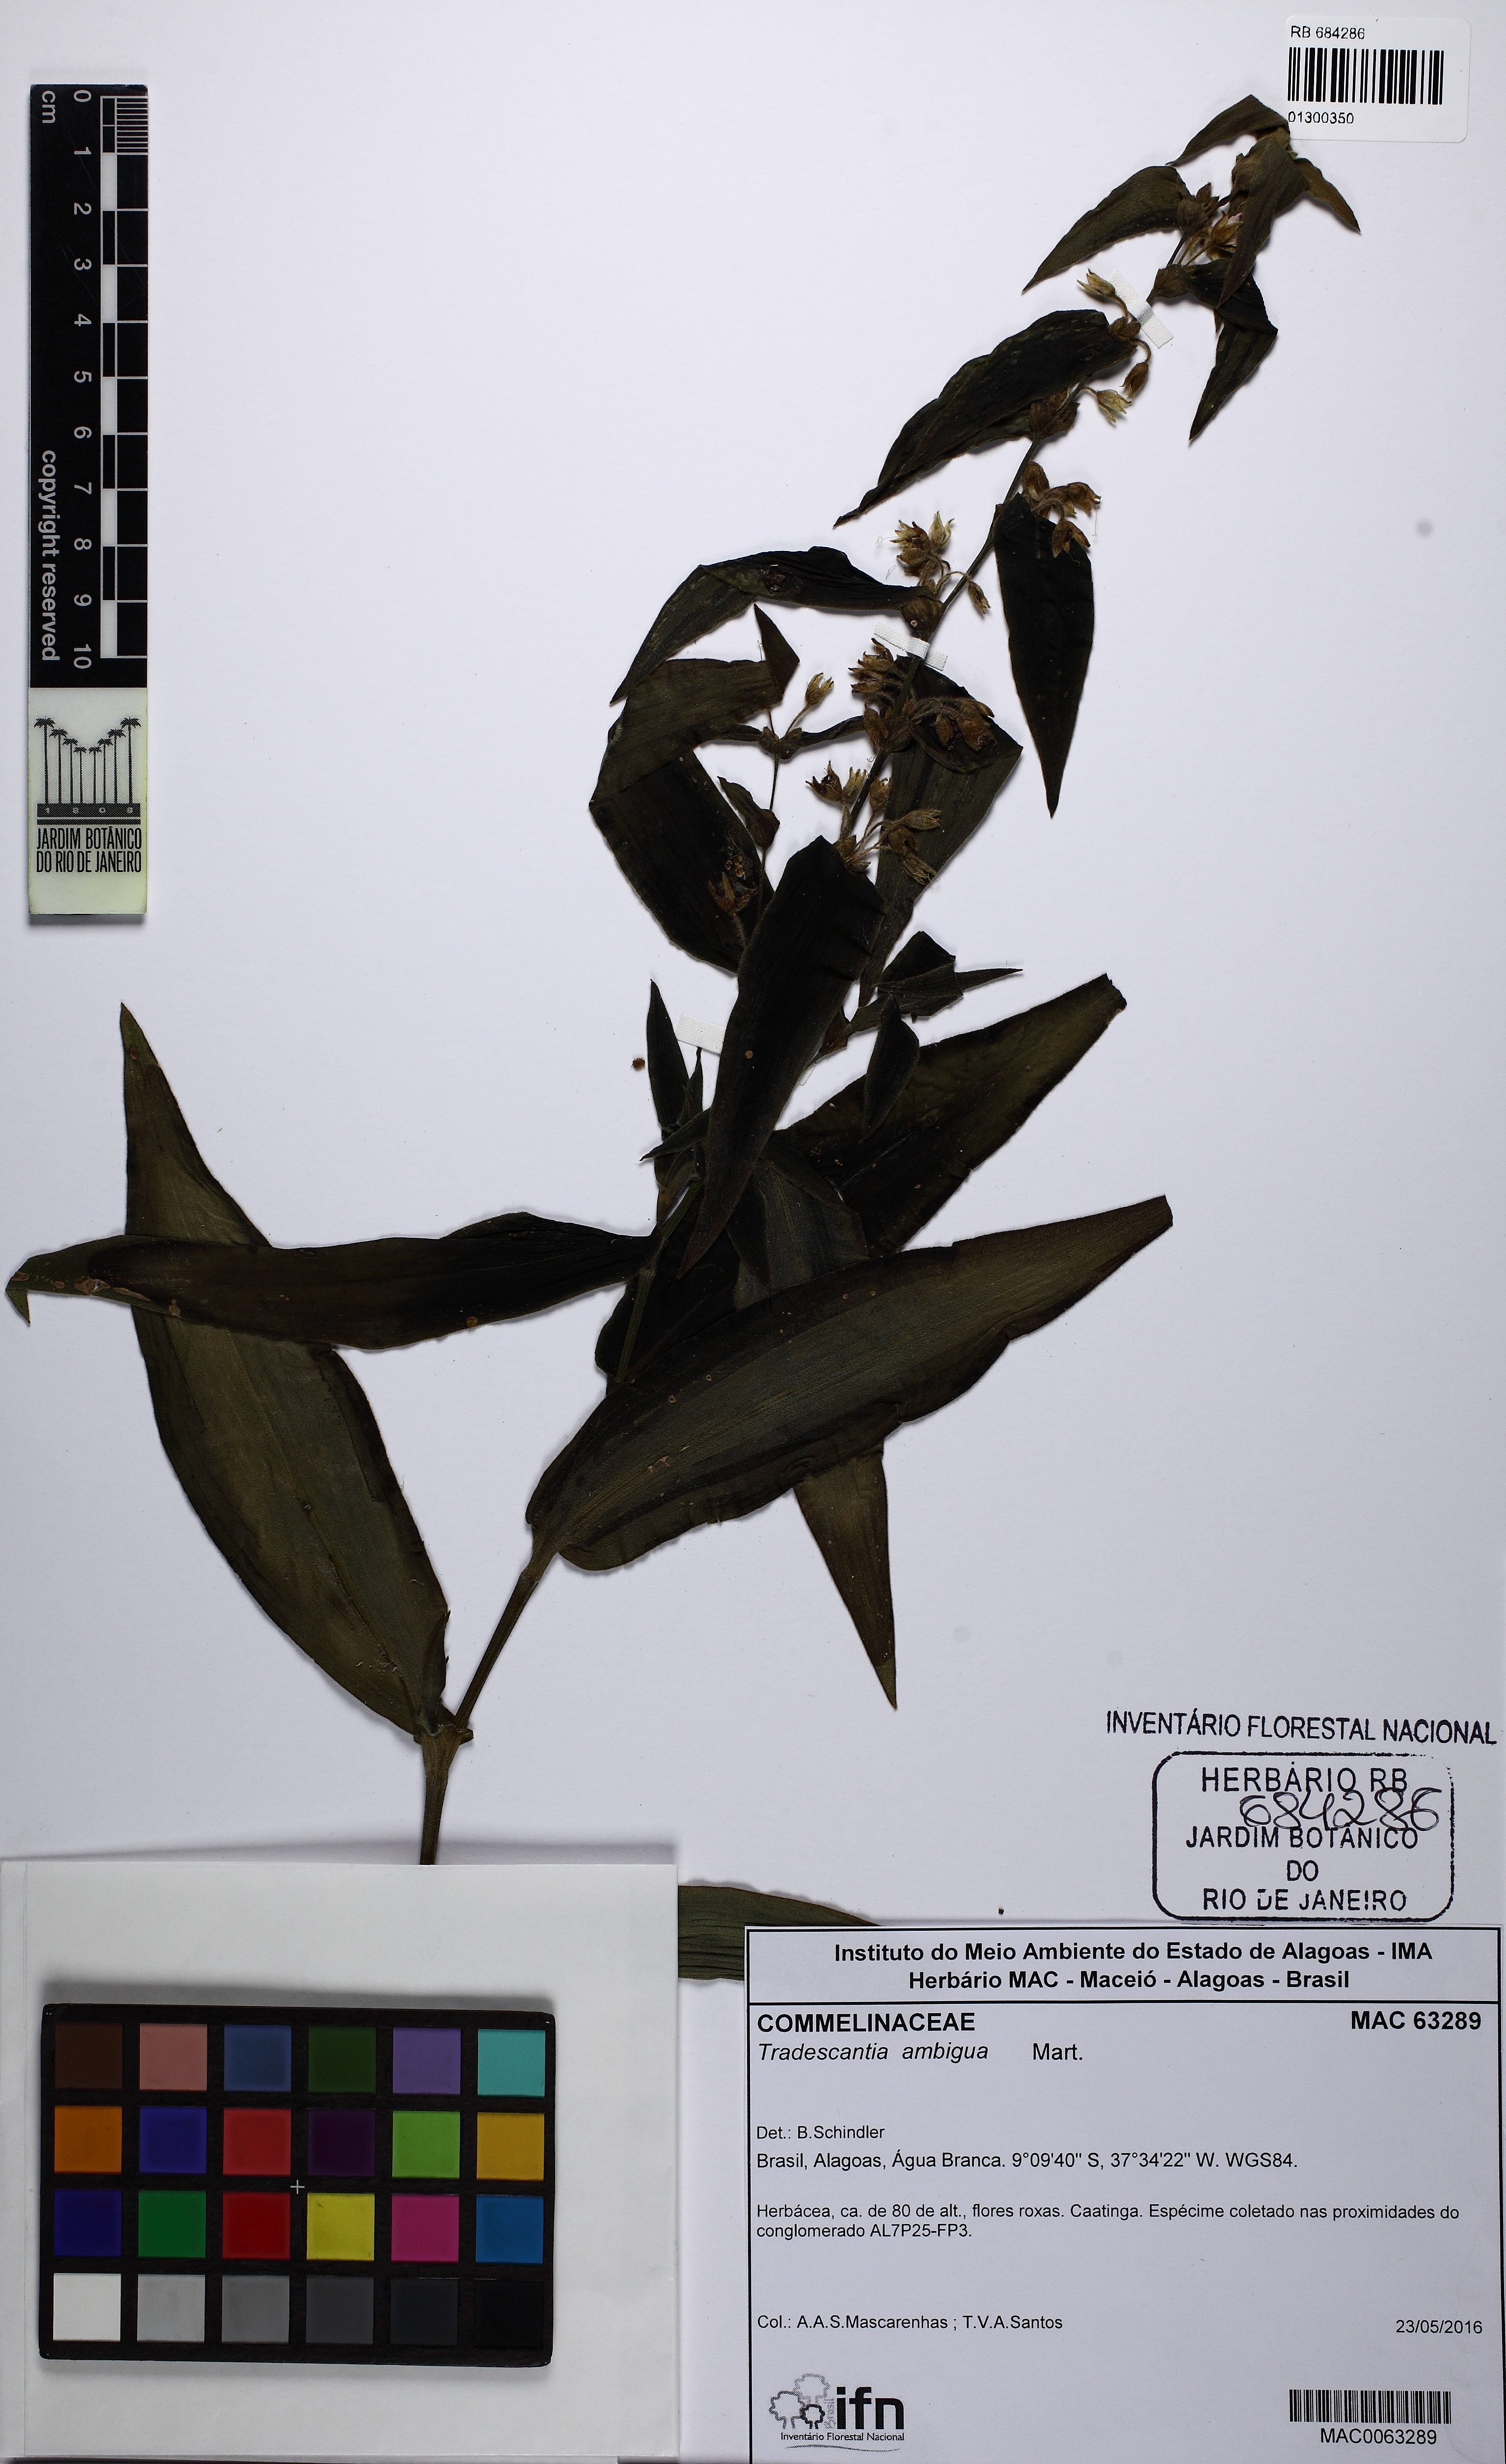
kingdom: Plantae
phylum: Tracheophyta
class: Liliopsida
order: Commelinales
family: Commelinaceae
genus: Tradescantia
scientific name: Tradescantia ambigua
